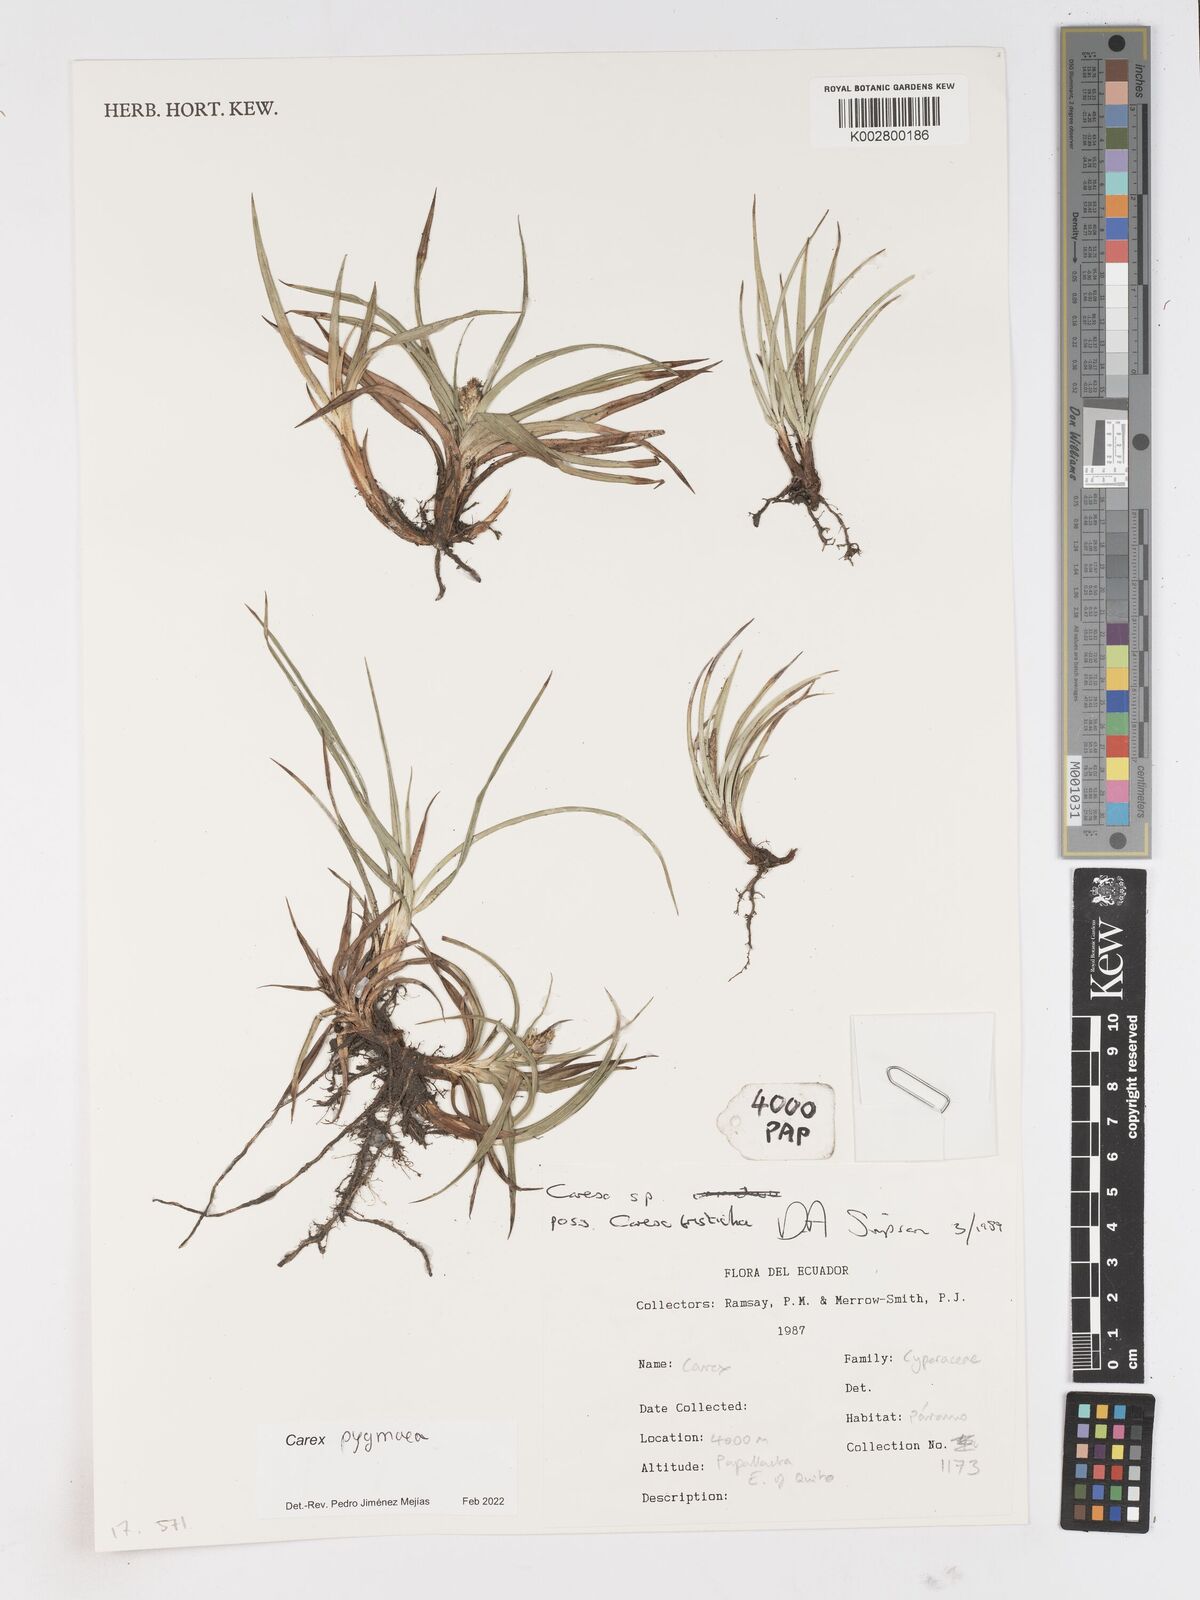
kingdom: Plantae
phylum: Tracheophyta
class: Liliopsida
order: Poales
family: Cyperaceae
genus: Carex
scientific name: Carex pygmaea
